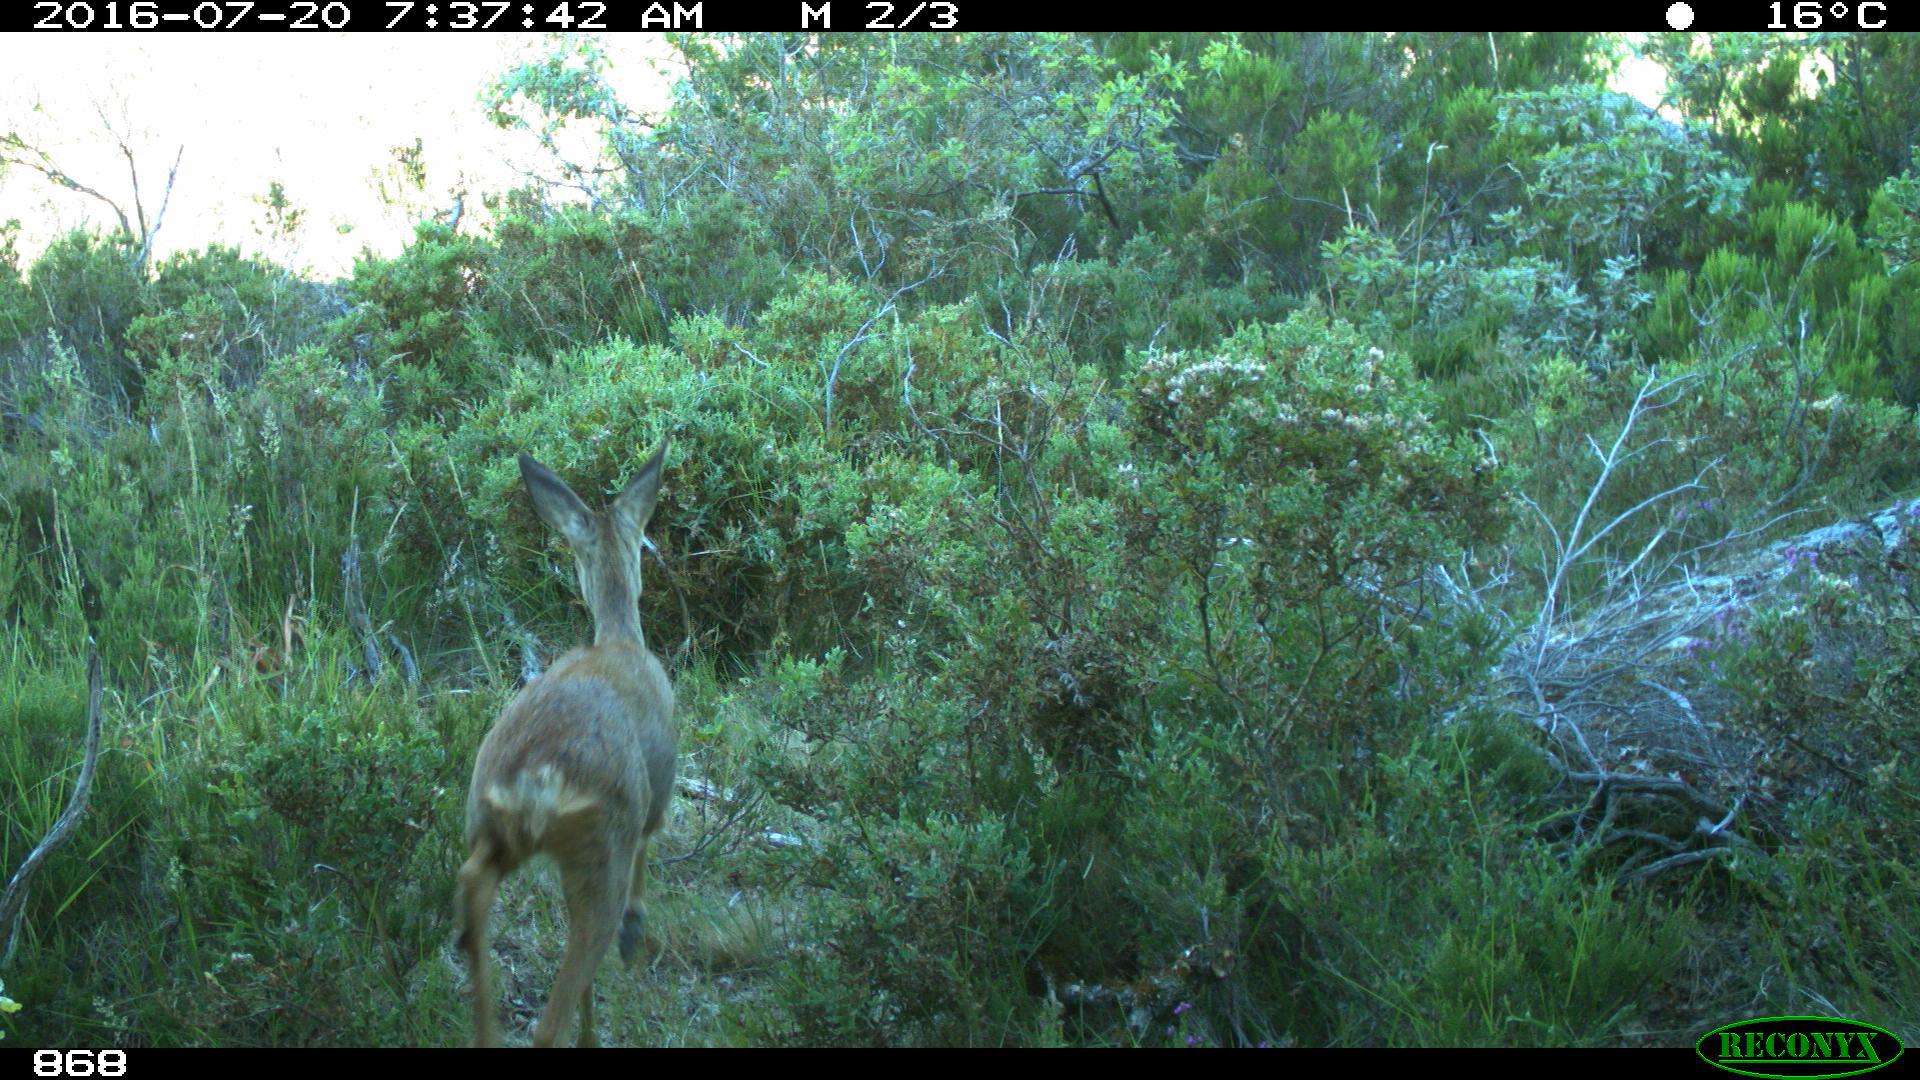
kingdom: Animalia
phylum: Chordata
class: Mammalia
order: Artiodactyla
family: Cervidae
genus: Capreolus
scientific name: Capreolus capreolus
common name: Western roe deer
